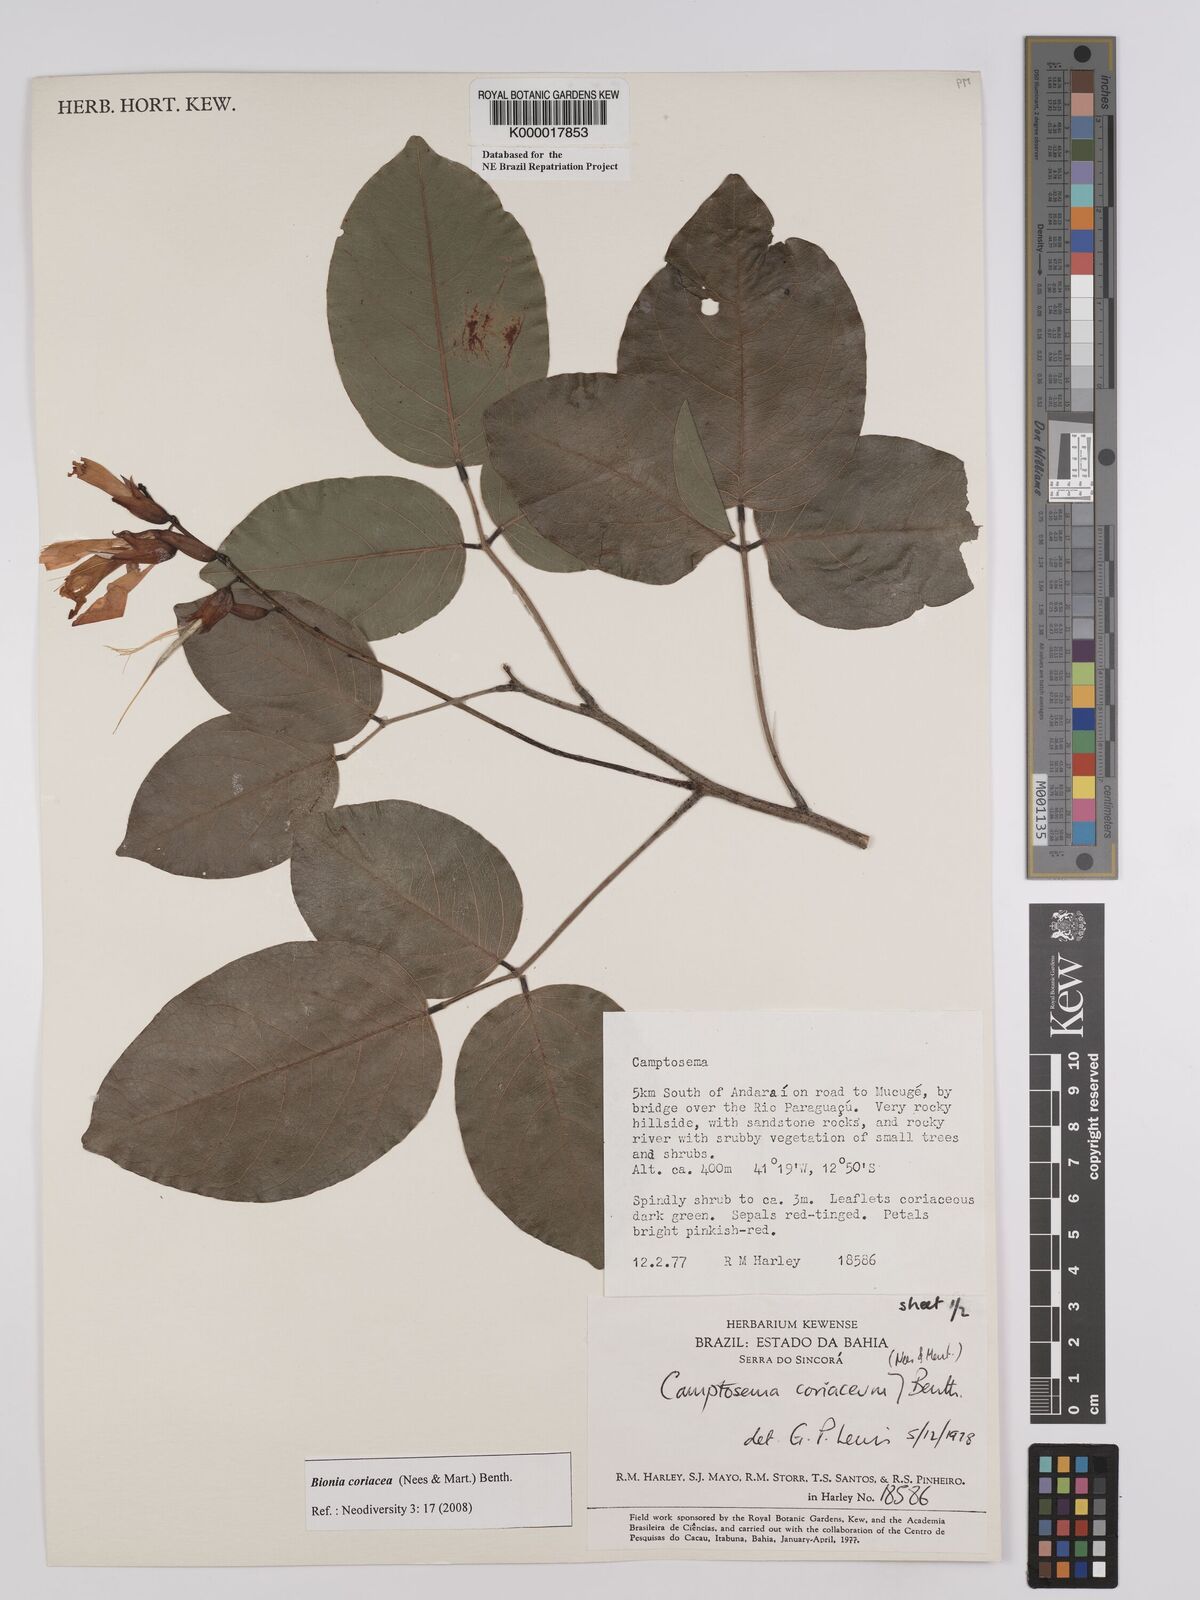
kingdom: Plantae
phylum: Tracheophyta
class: Magnoliopsida
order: Fabales
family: Fabaceae
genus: Camptosema
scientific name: Camptosema coriaceum
